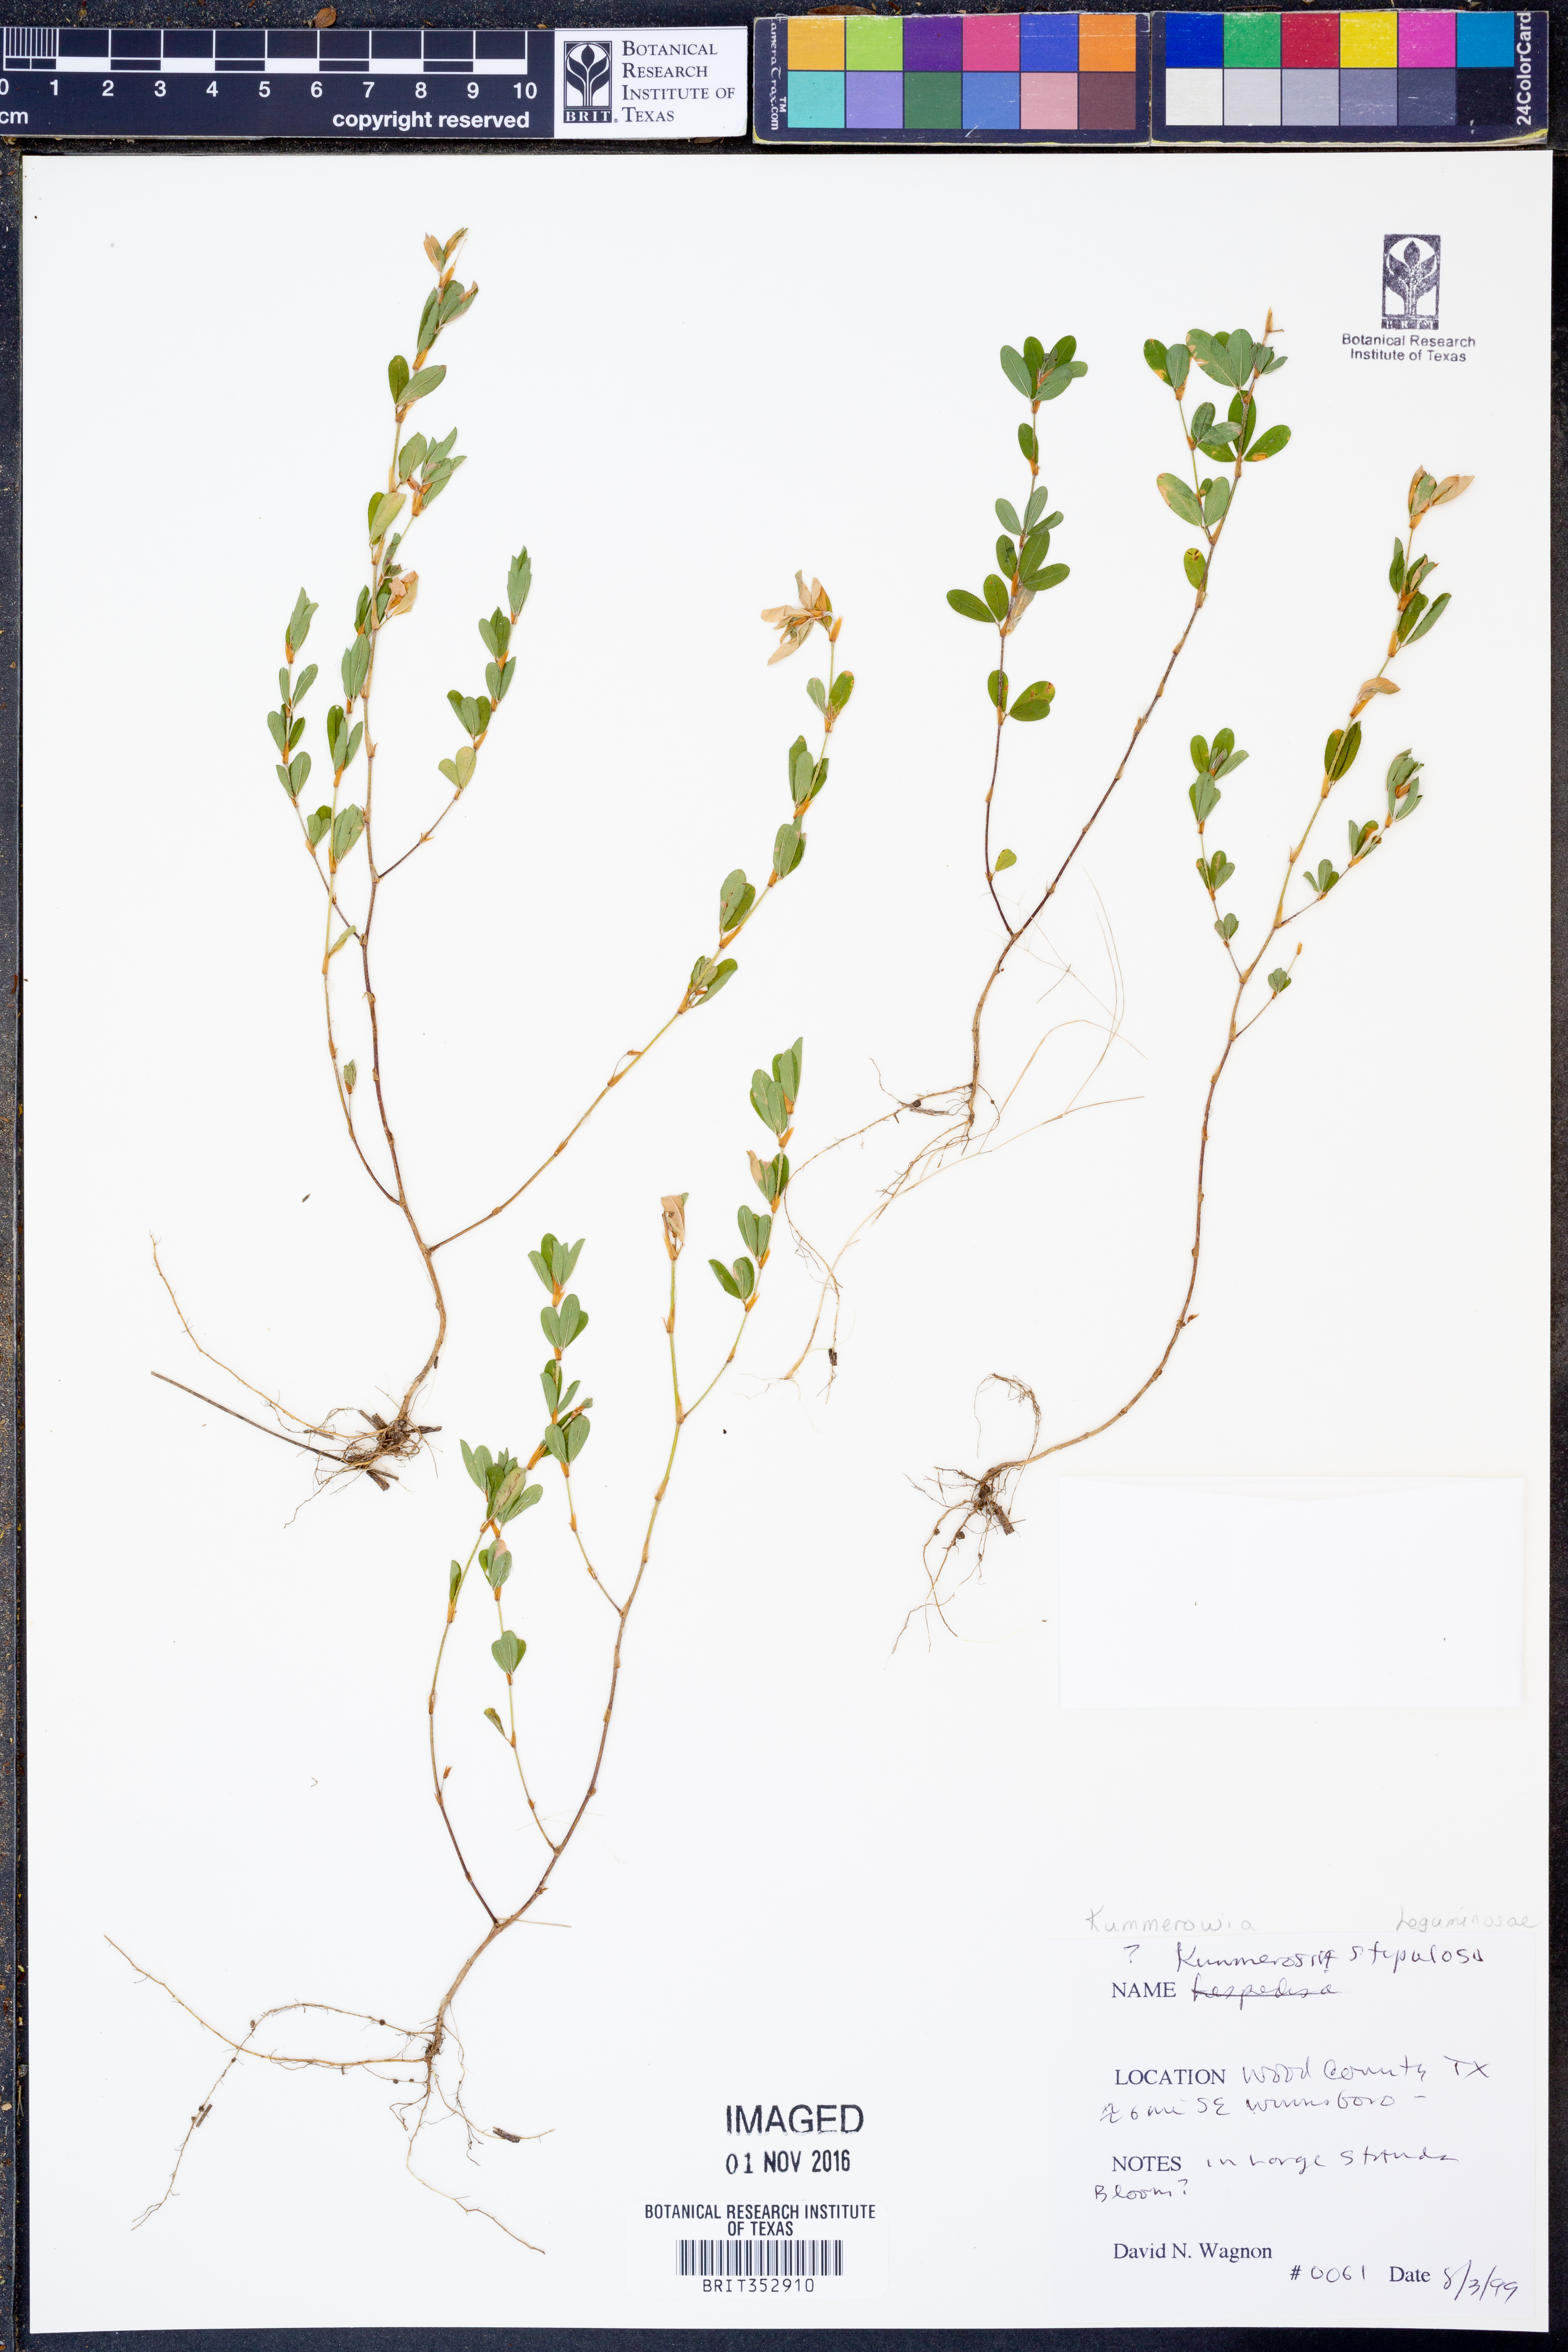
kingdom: Plantae
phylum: Tracheophyta
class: Magnoliopsida
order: Fabales
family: Fabaceae
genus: Kummerowia
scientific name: Kummerowia stipulacea
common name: Korean clover
